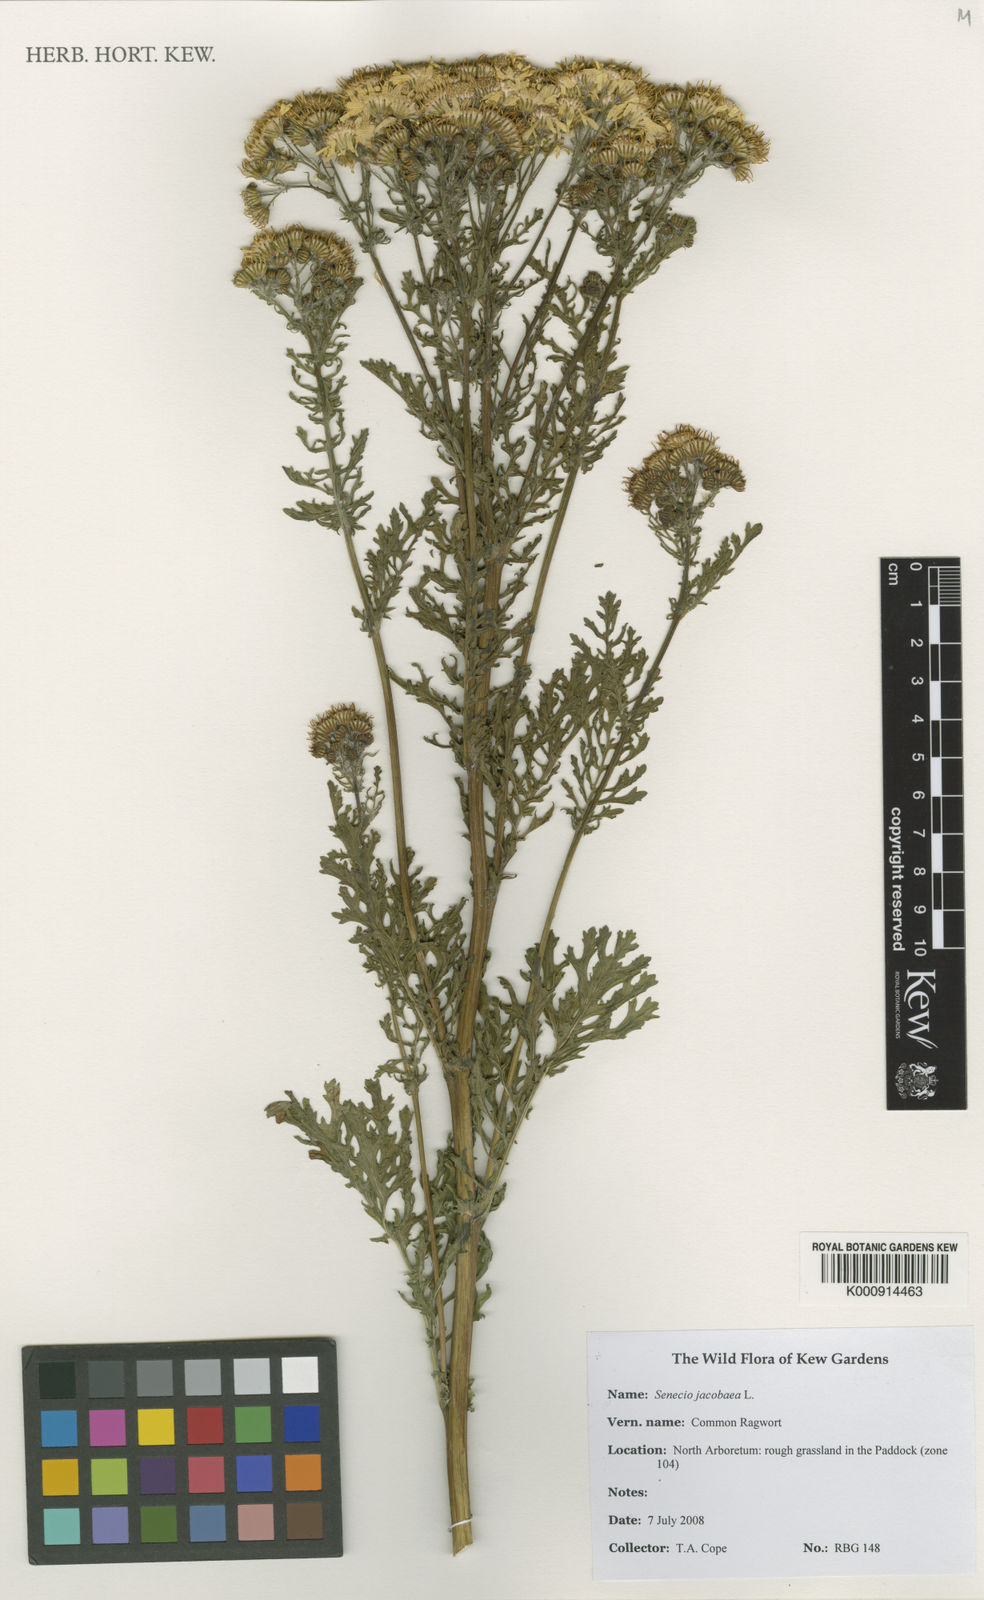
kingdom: Plantae
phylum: Tracheophyta
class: Magnoliopsida
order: Asterales
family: Asteraceae
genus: Jacobaea
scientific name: Jacobaea vulgaris
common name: Stinking willie
